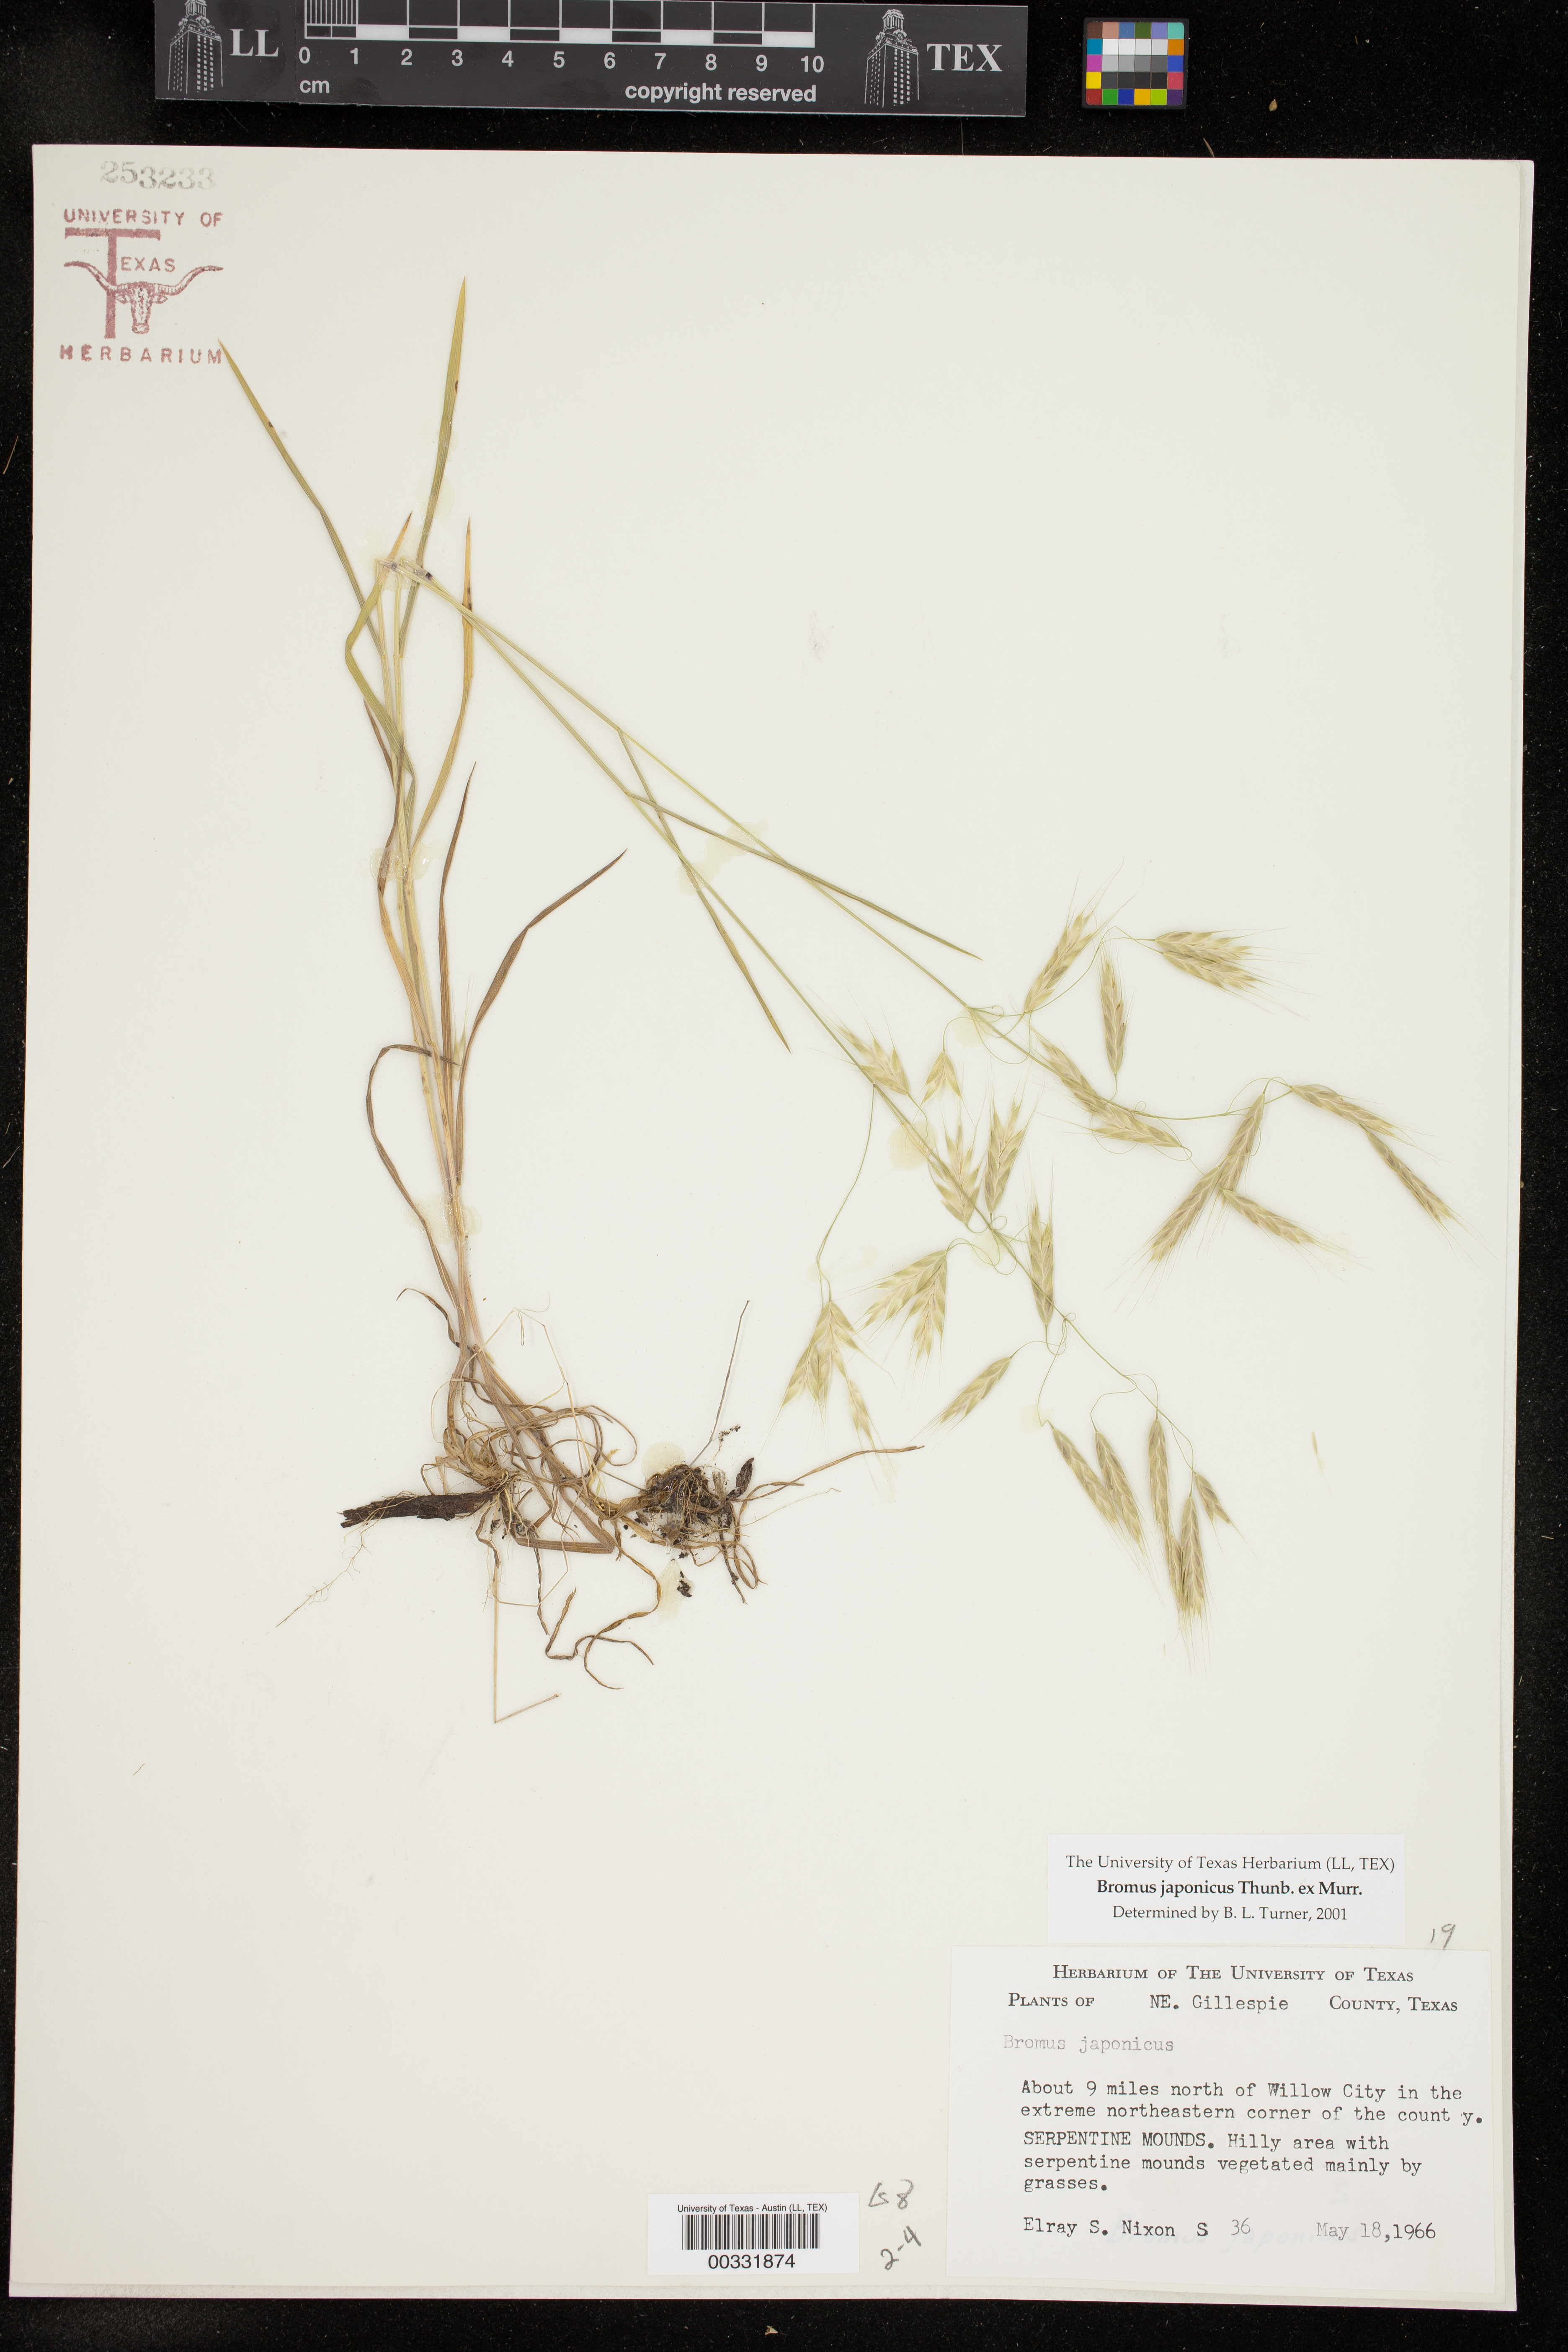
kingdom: Plantae
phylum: Tracheophyta
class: Liliopsida
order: Poales
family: Poaceae
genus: Bromus
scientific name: Bromus japonicus
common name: Japanese brome
